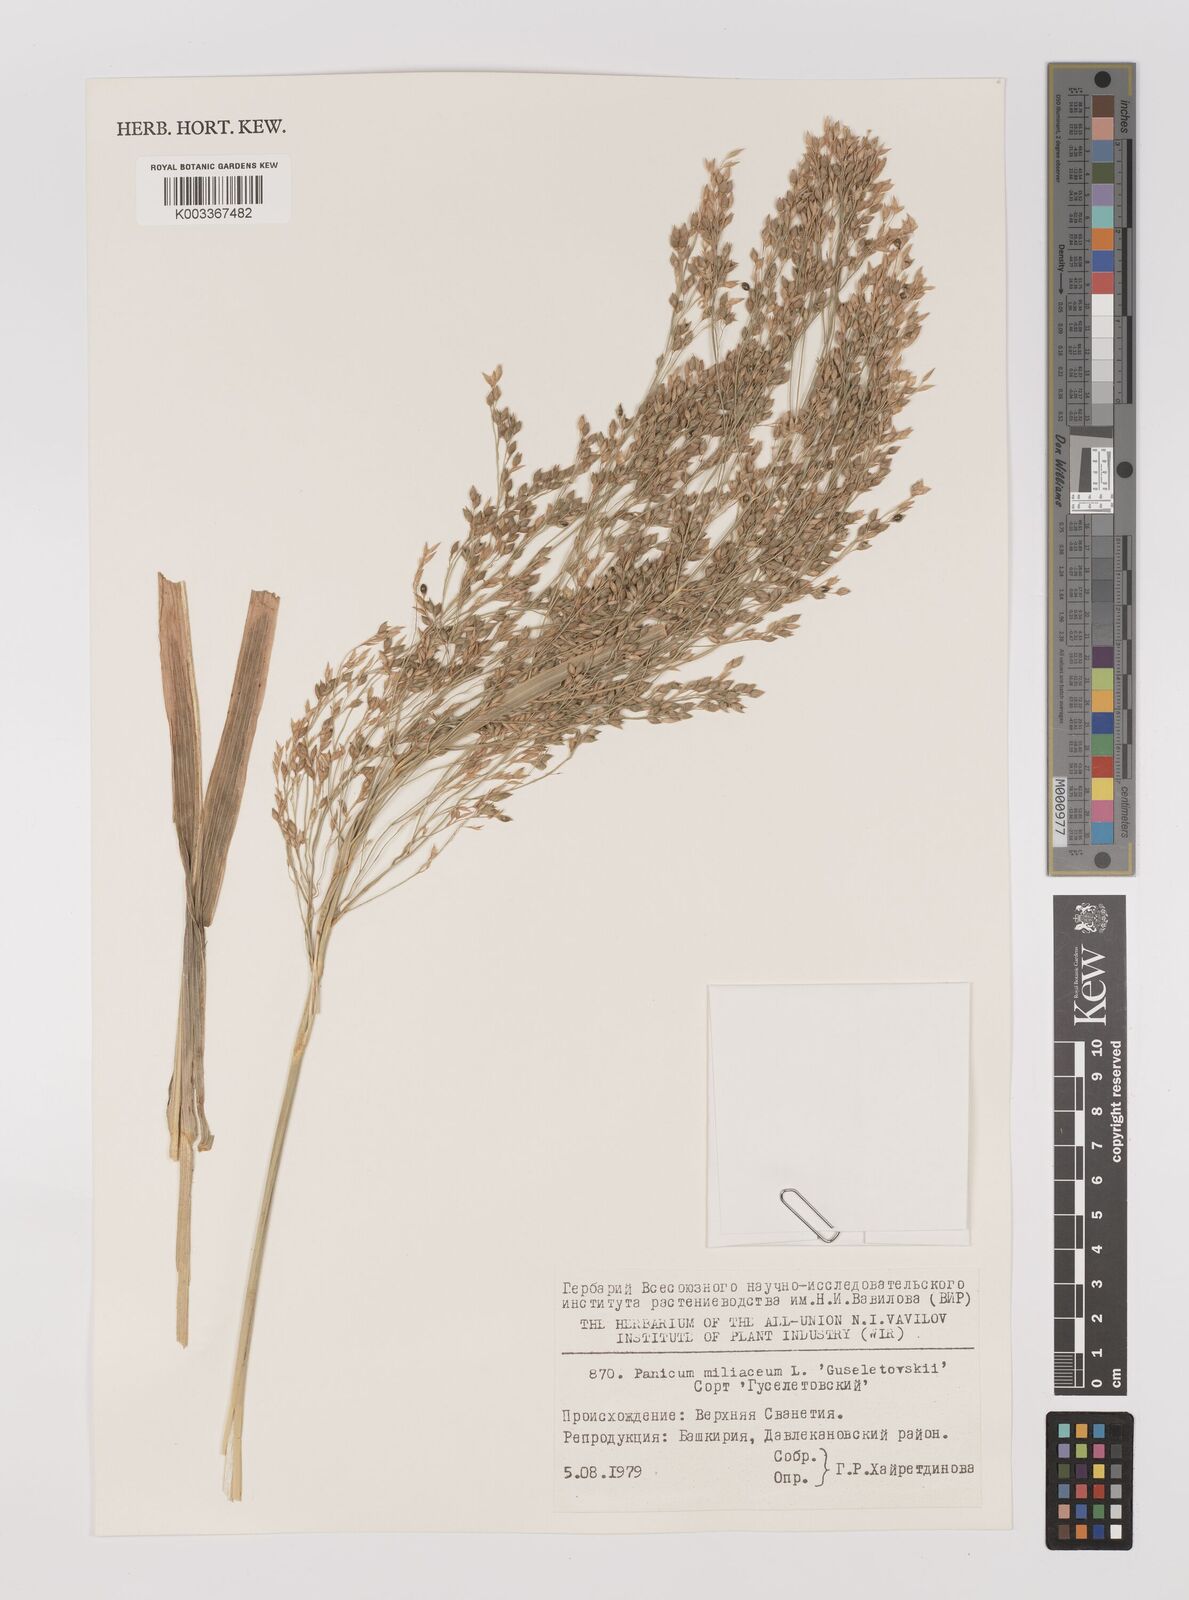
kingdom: Plantae
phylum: Tracheophyta
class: Liliopsida
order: Poales
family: Poaceae
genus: Panicum
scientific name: Panicum miliaceum
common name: Common millet
